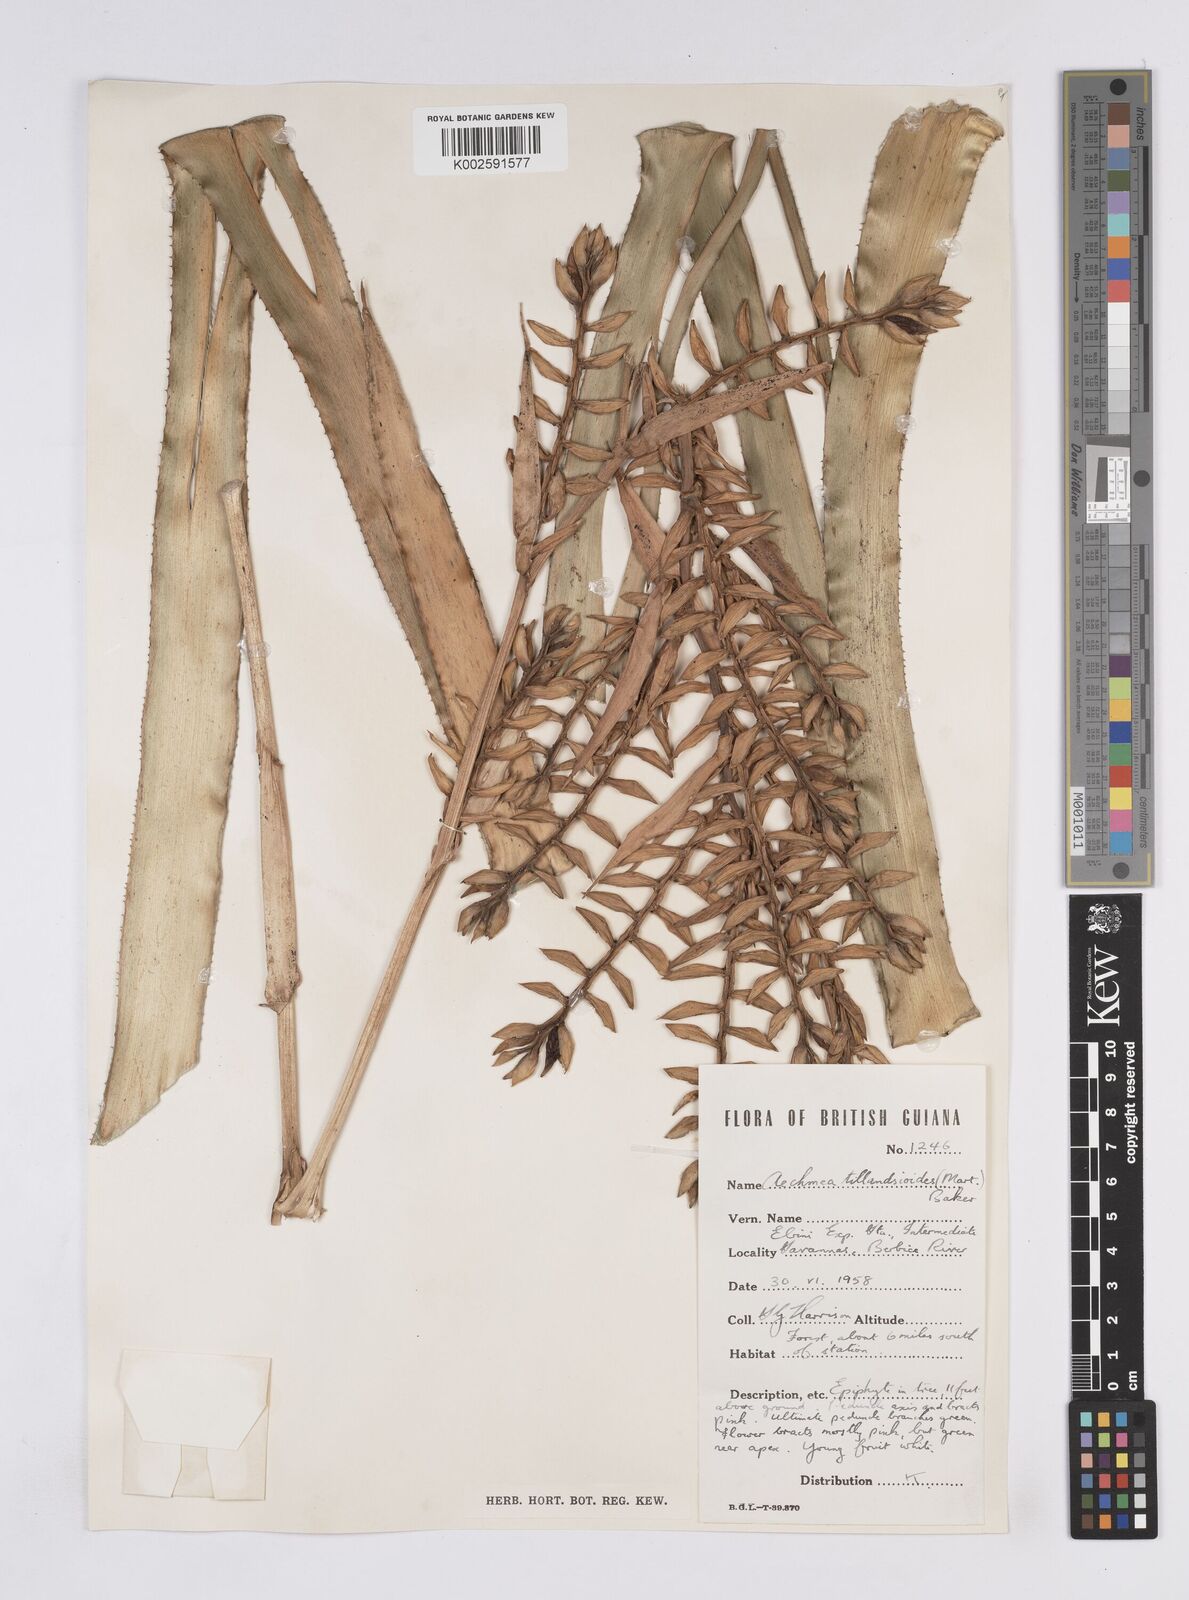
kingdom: Plantae
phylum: Tracheophyta
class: Liliopsida
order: Poales
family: Bromeliaceae
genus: Aechmea
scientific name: Aechmea tillandsioides
